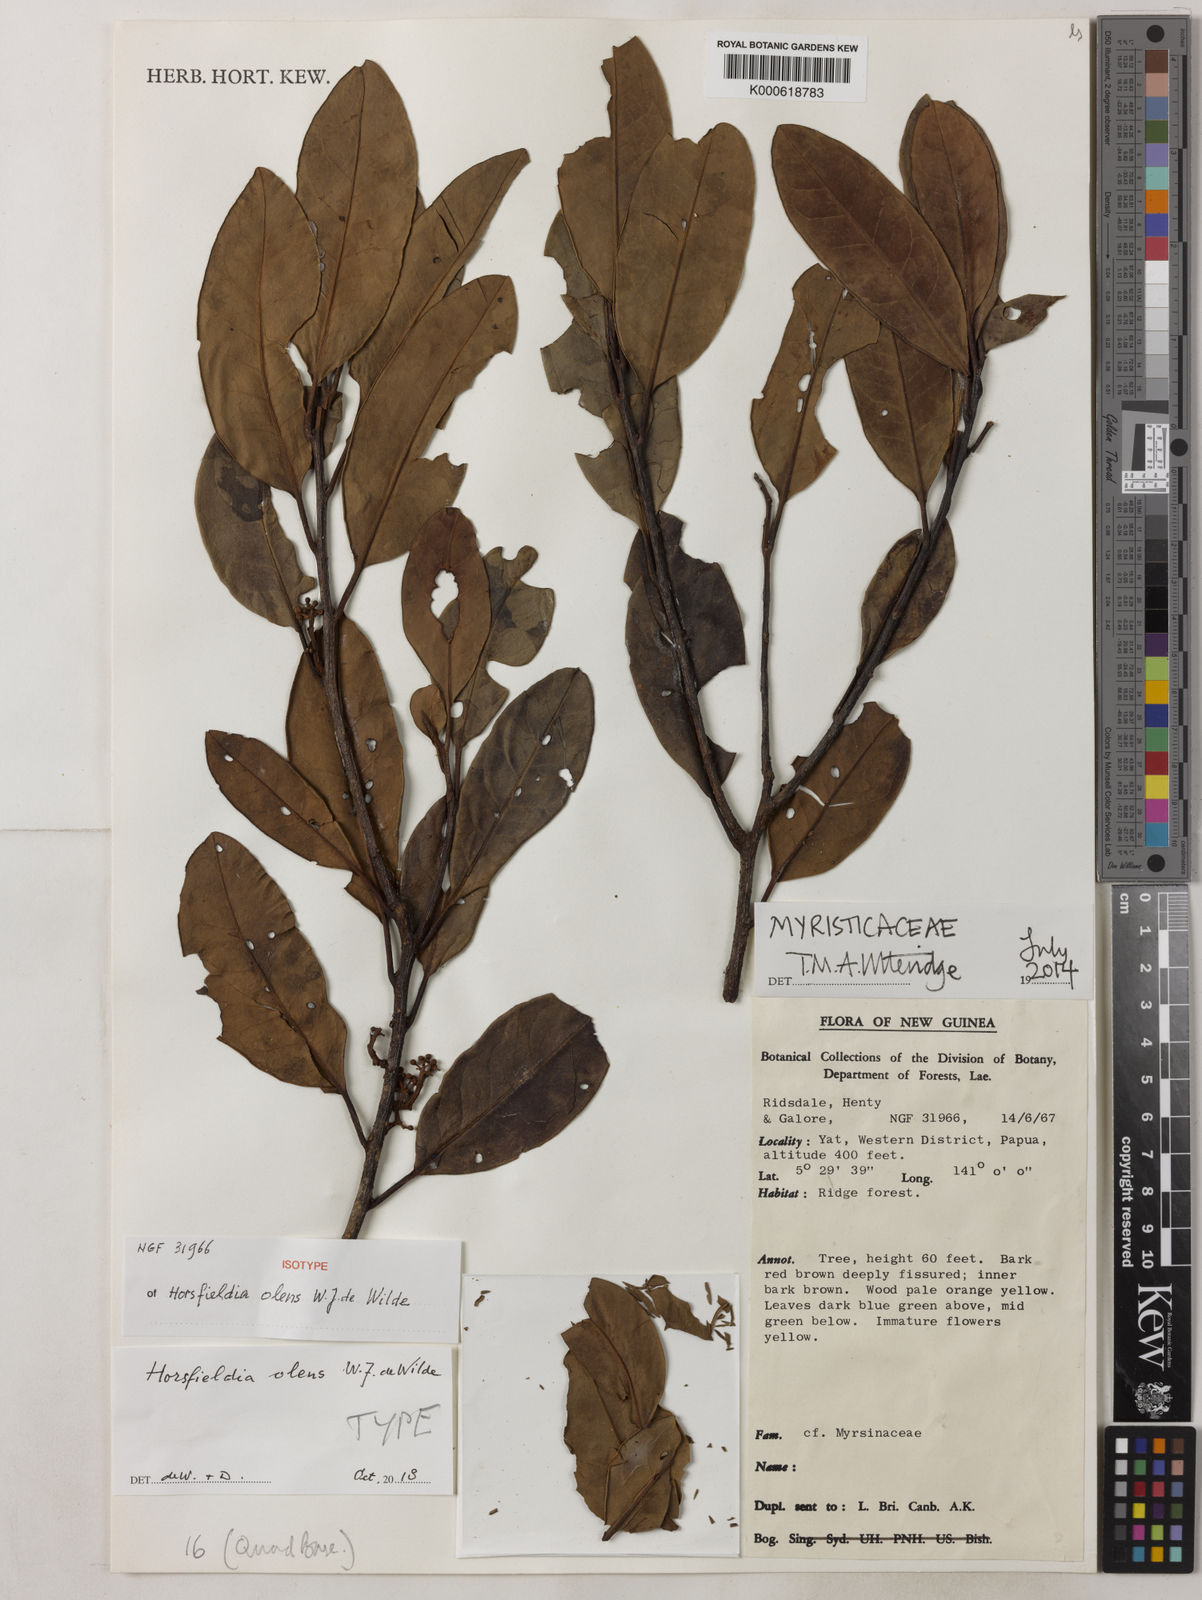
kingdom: Plantae
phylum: Tracheophyta
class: Magnoliopsida
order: Magnoliales
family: Myristicaceae
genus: Horsfieldia
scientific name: Horsfieldia olens
